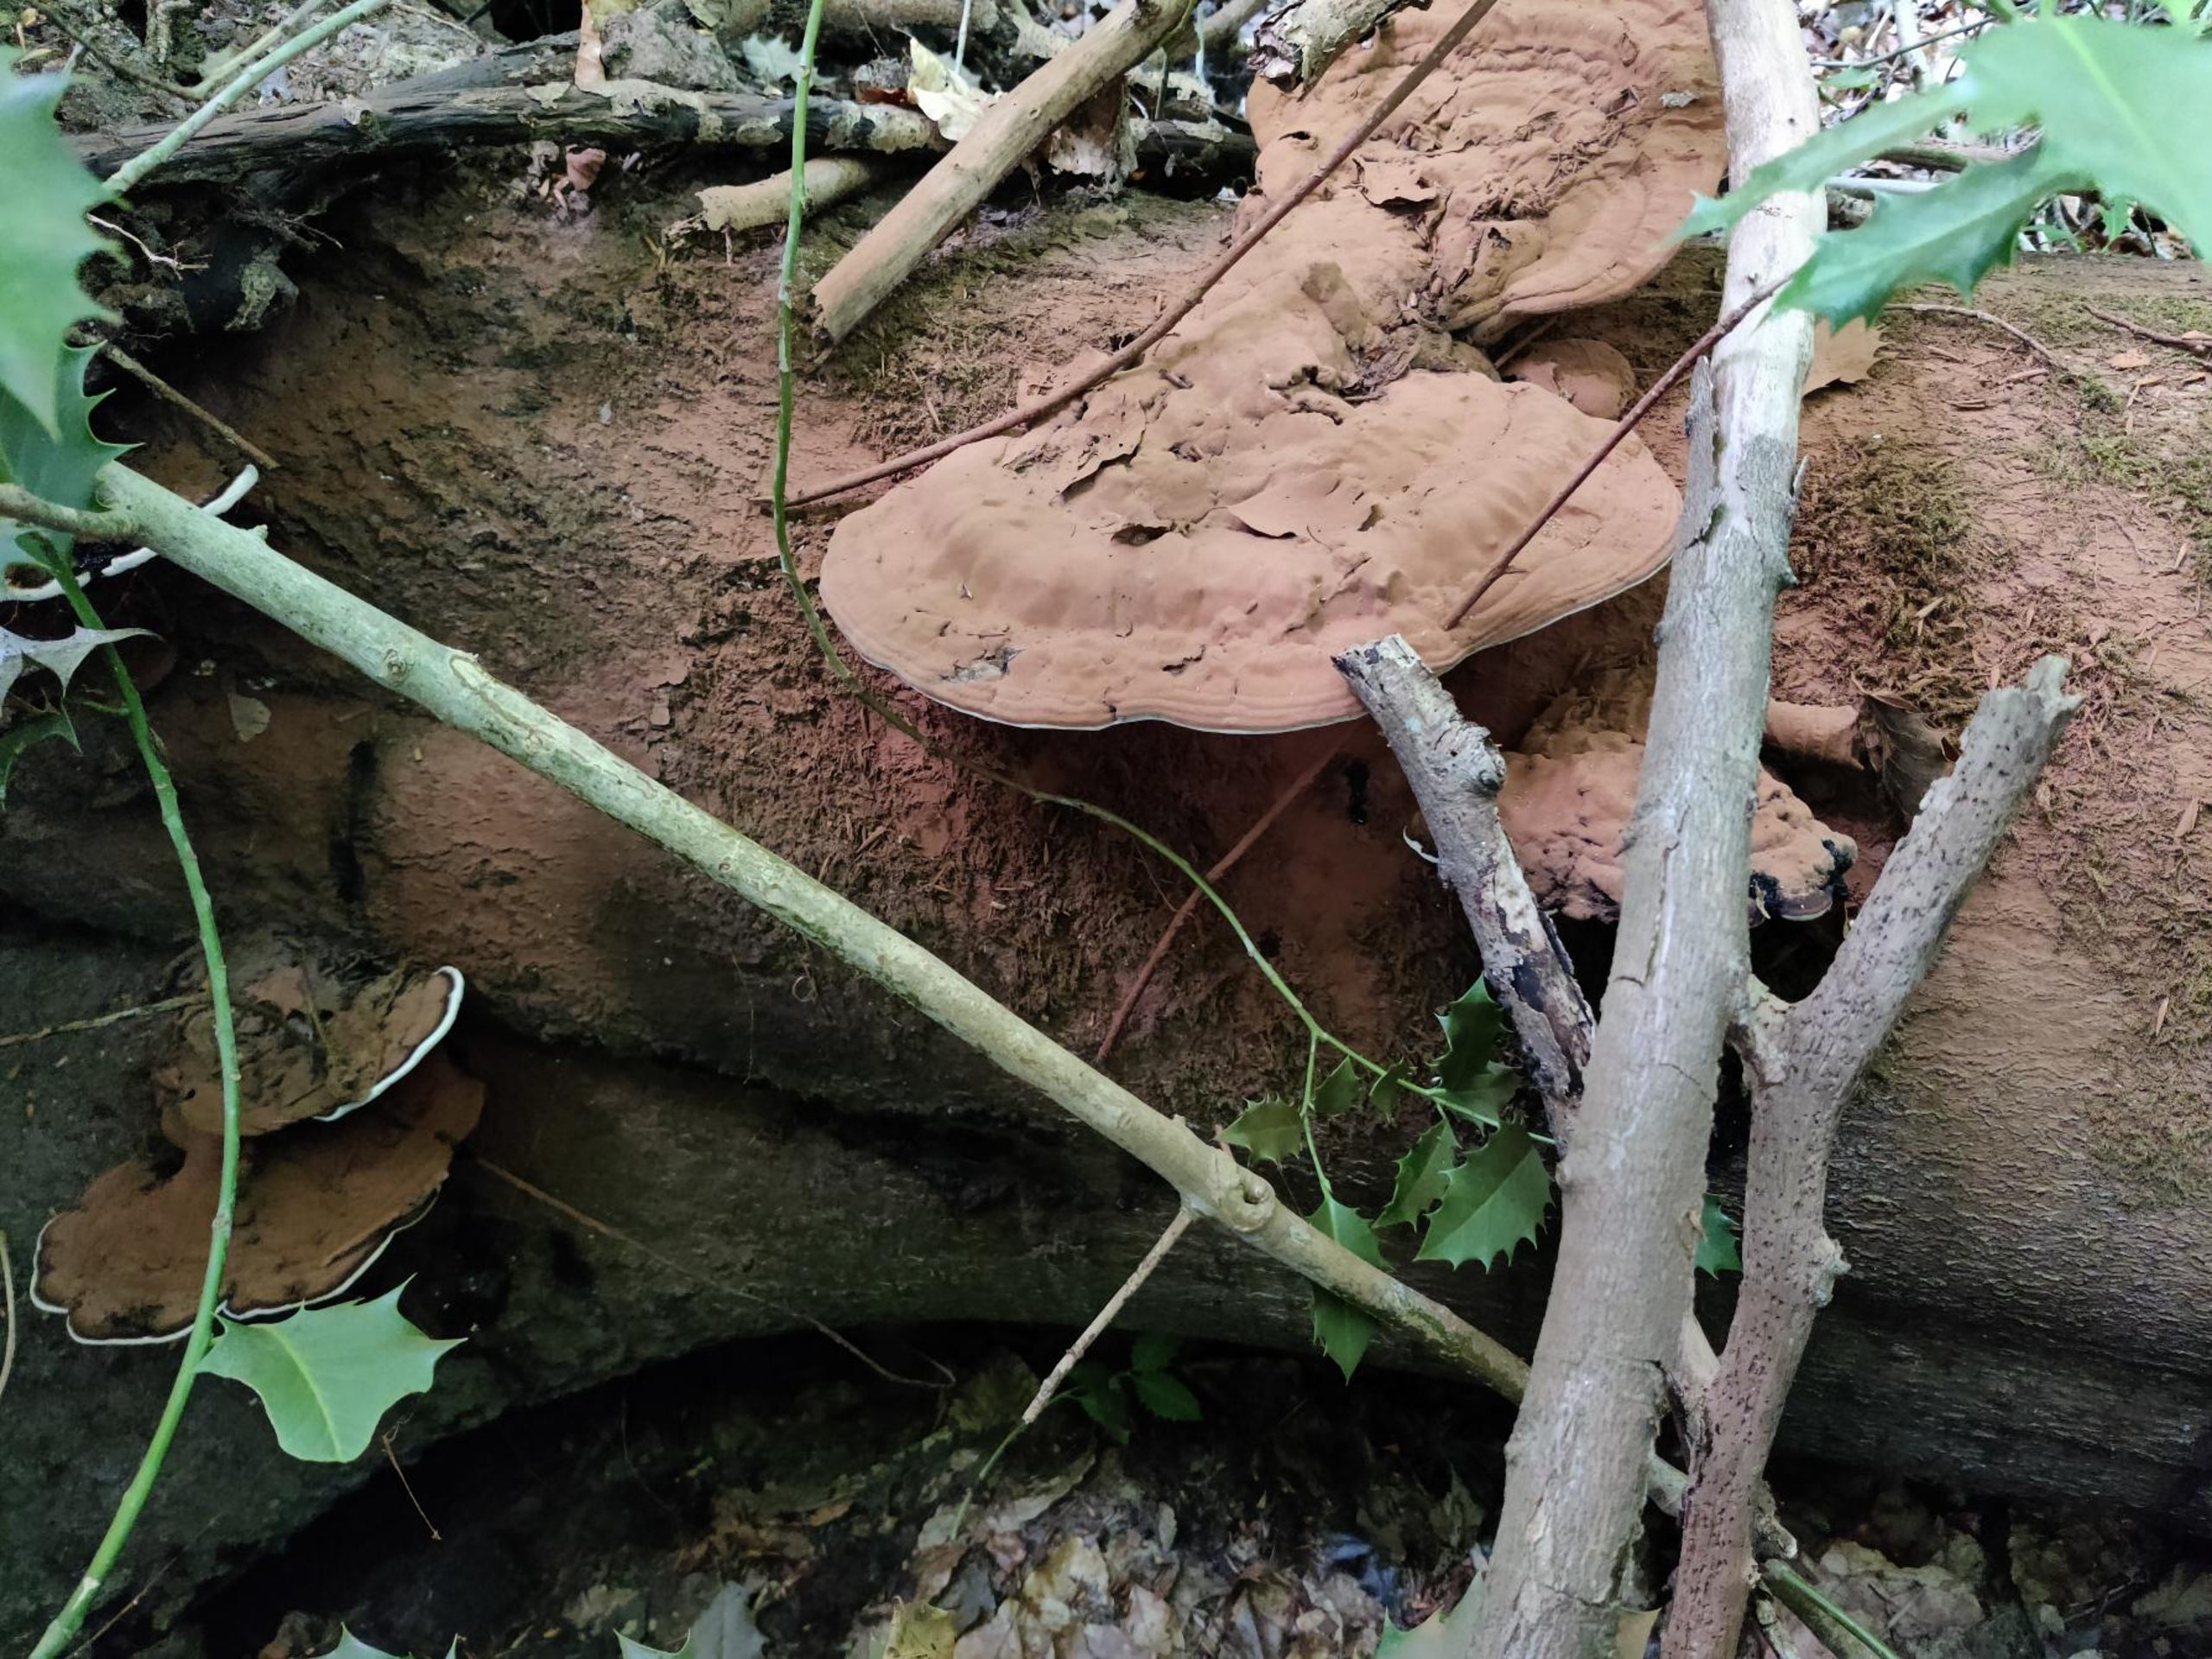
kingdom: Fungi
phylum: Basidiomycota
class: Agaricomycetes
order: Polyporales
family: Polyporaceae
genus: Ganoderma
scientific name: Ganoderma applanatum
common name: Flad lakporesvamp
